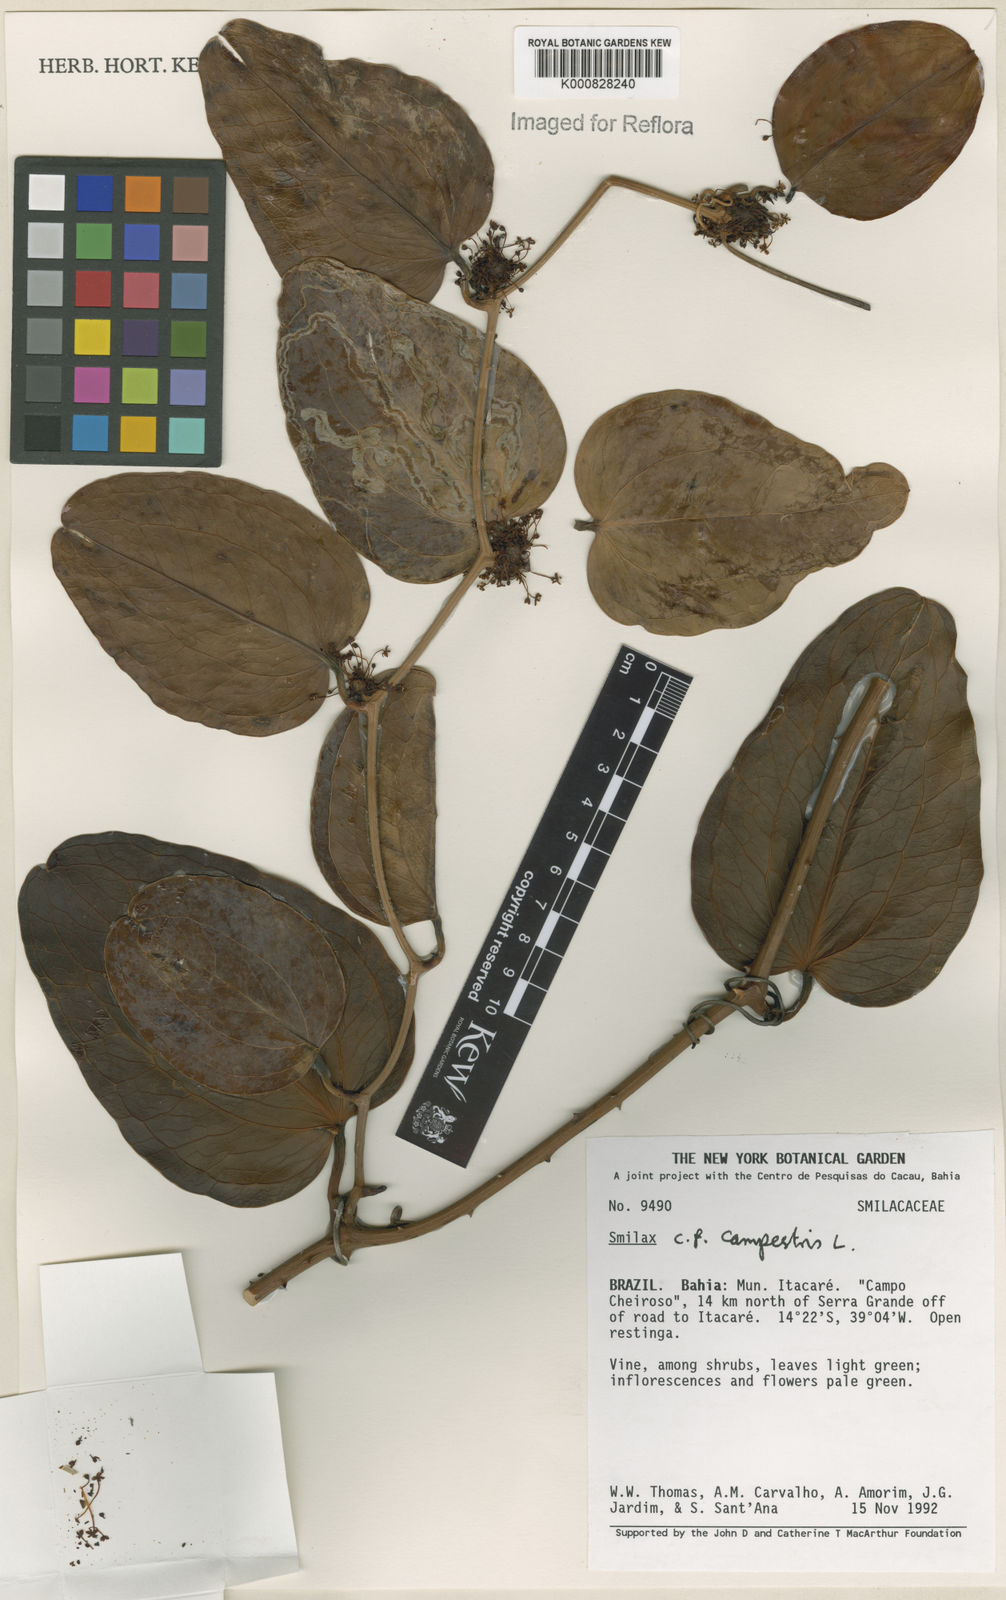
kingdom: Plantae
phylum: Tracheophyta
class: Liliopsida
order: Liliales
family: Smilacaceae
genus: Smilax
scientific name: Smilax campestris
